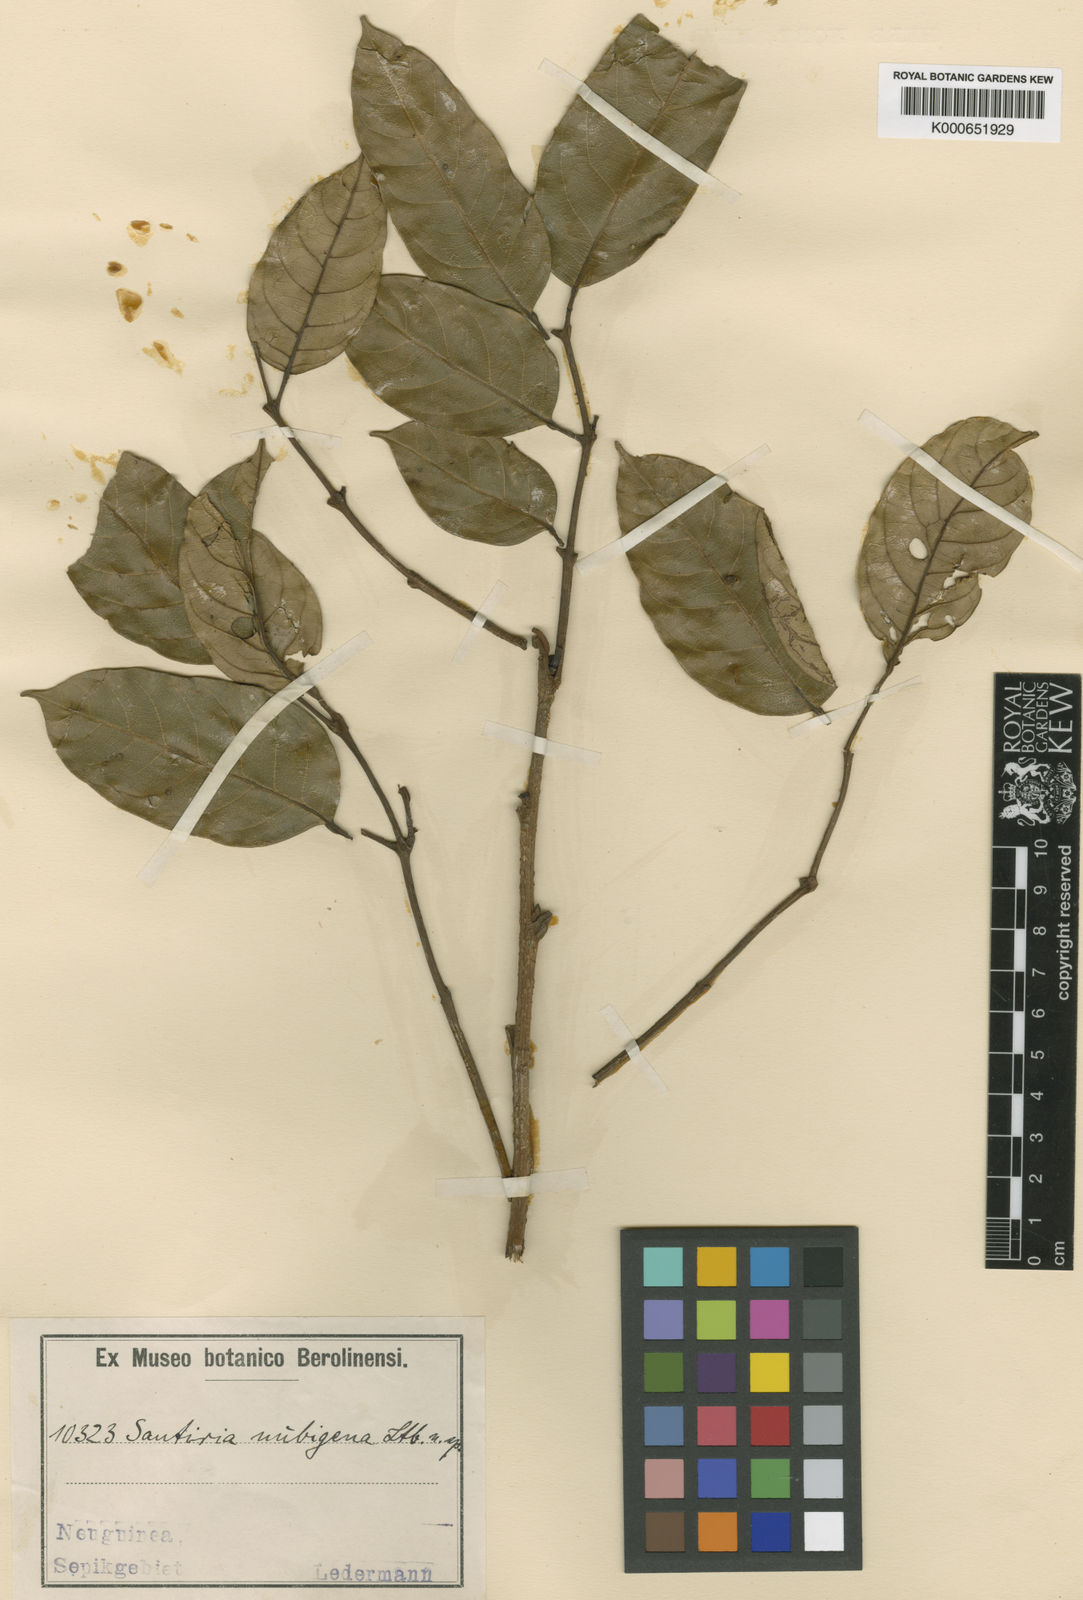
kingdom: Plantae
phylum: Tracheophyta
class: Magnoliopsida
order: Sapindales
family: Burseraceae
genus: Haplolobus
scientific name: Haplolobus floribundus
